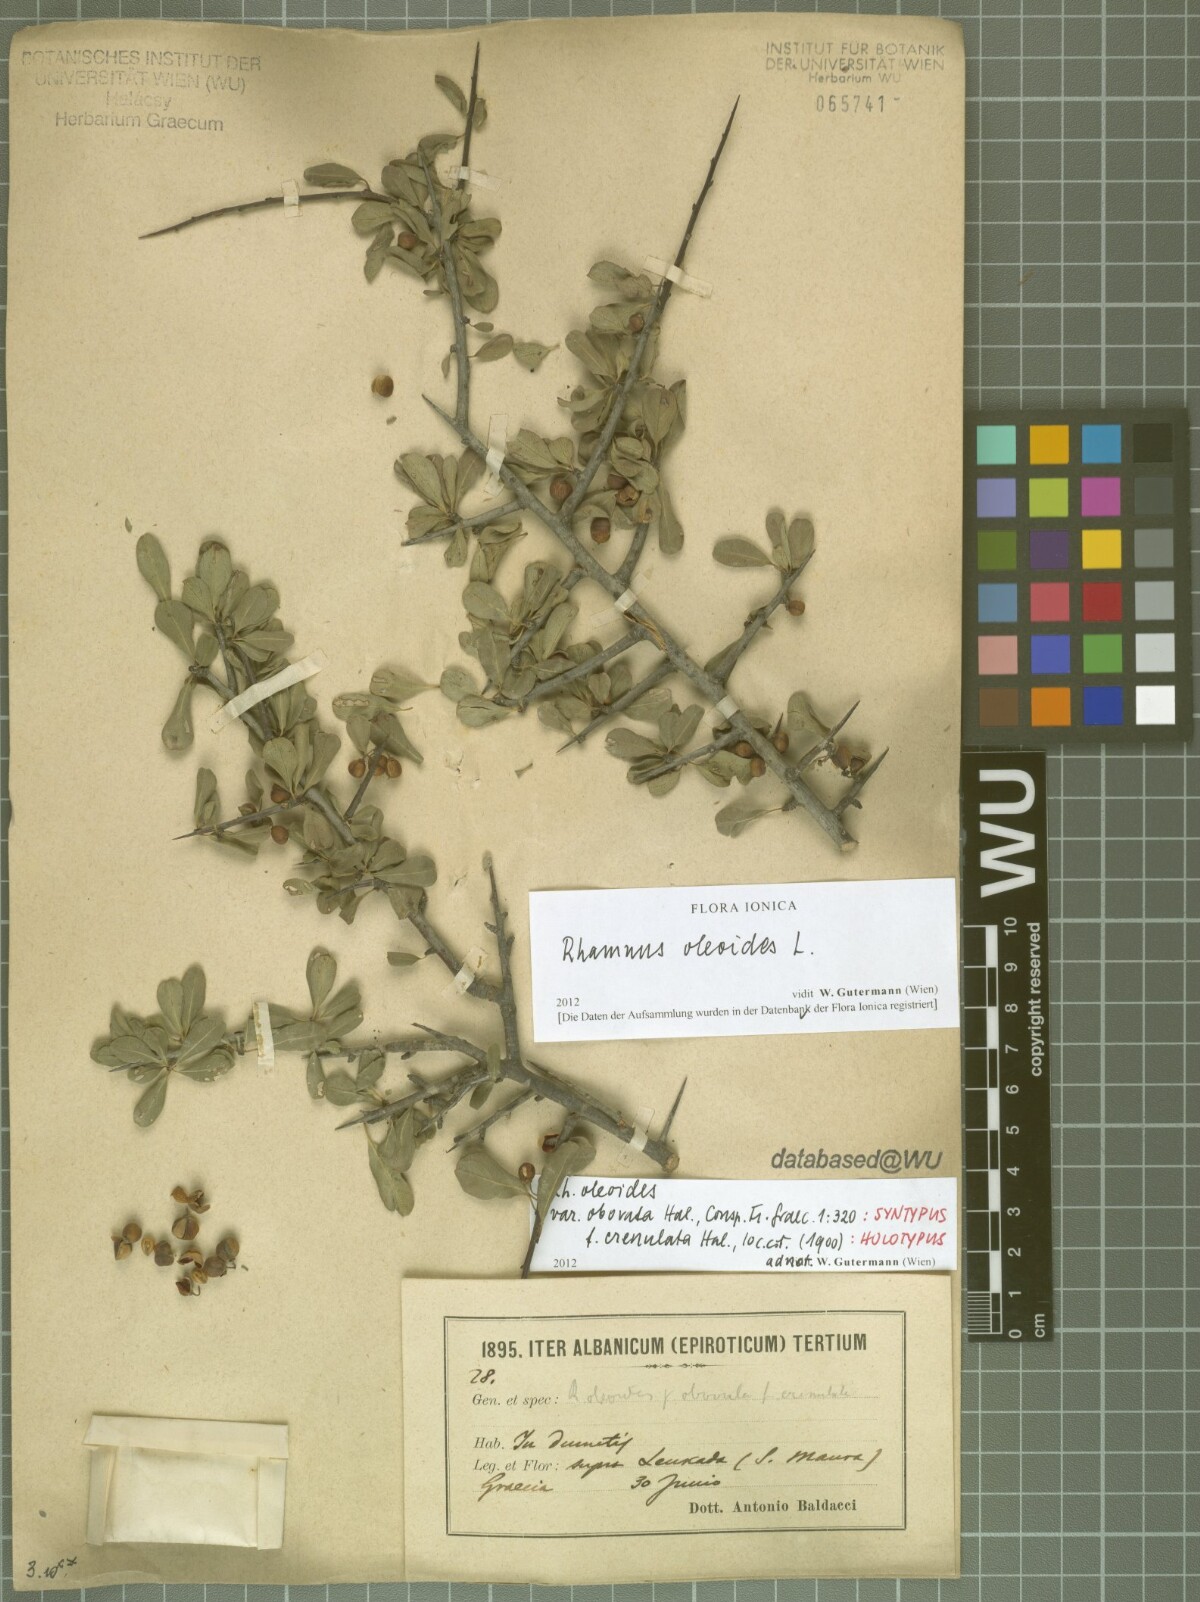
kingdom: Plantae
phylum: Tracheophyta
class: Magnoliopsida
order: Rosales
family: Rhamnaceae
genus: Rhamnus
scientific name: Rhamnus oleoides
